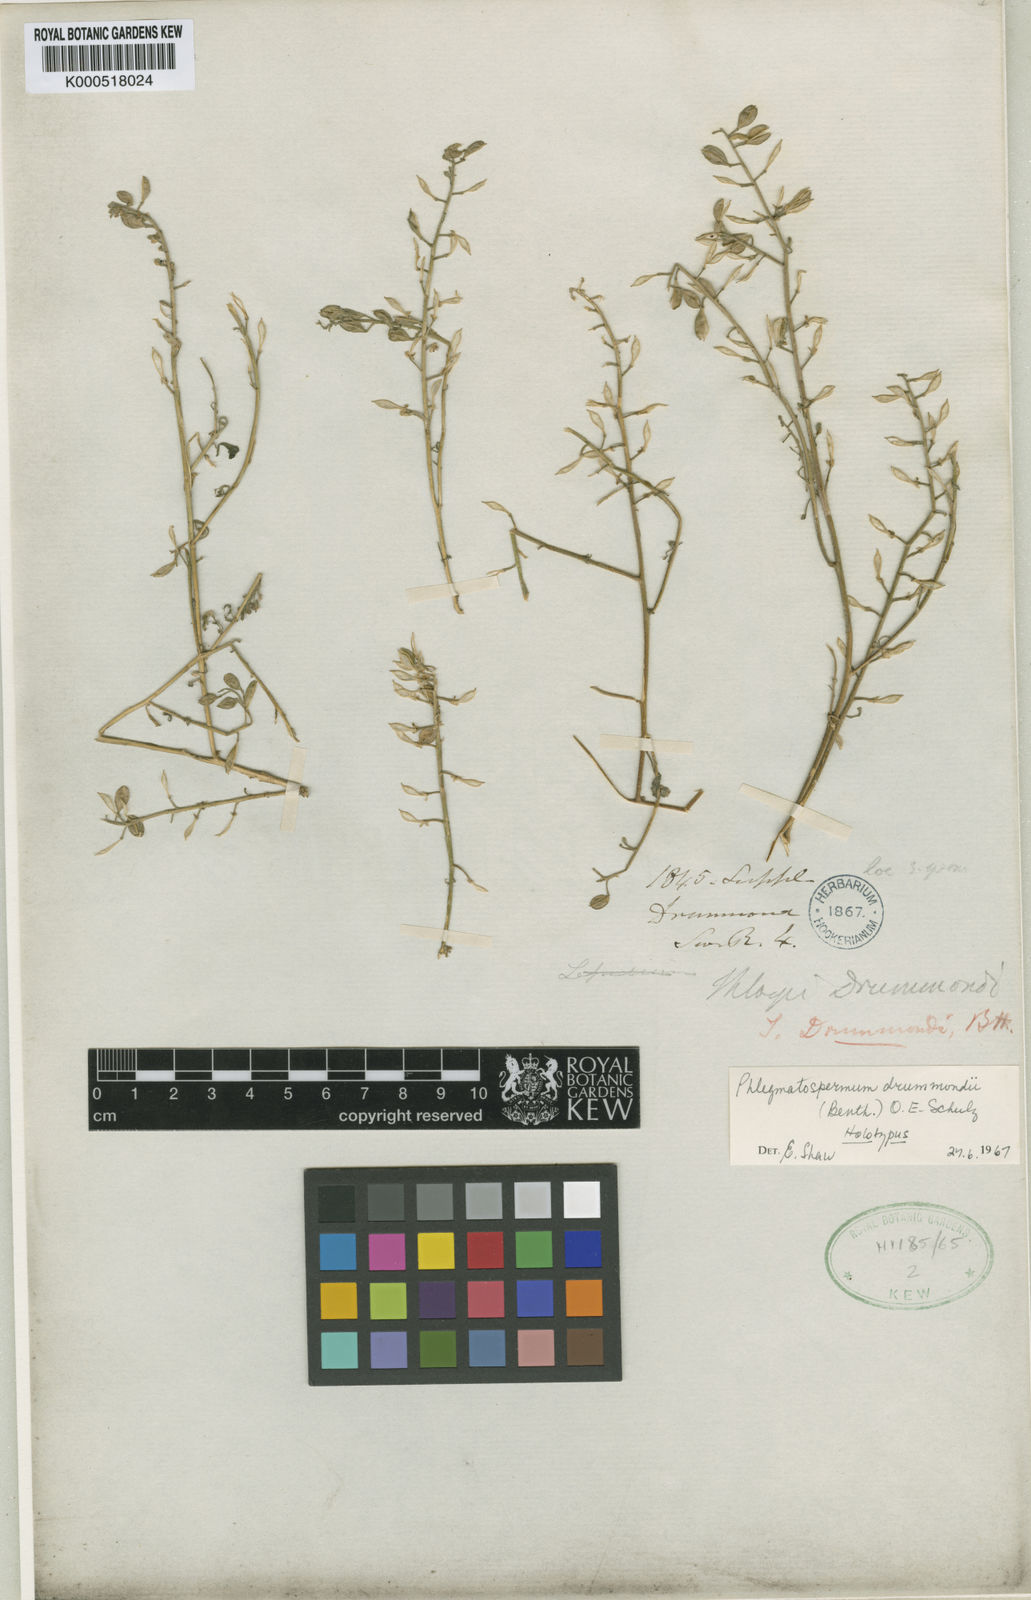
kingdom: Plantae
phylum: Tracheophyta
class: Magnoliopsida
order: Brassicales
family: Brassicaceae
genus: Phlegmatospermum
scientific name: Phlegmatospermum drummondii
